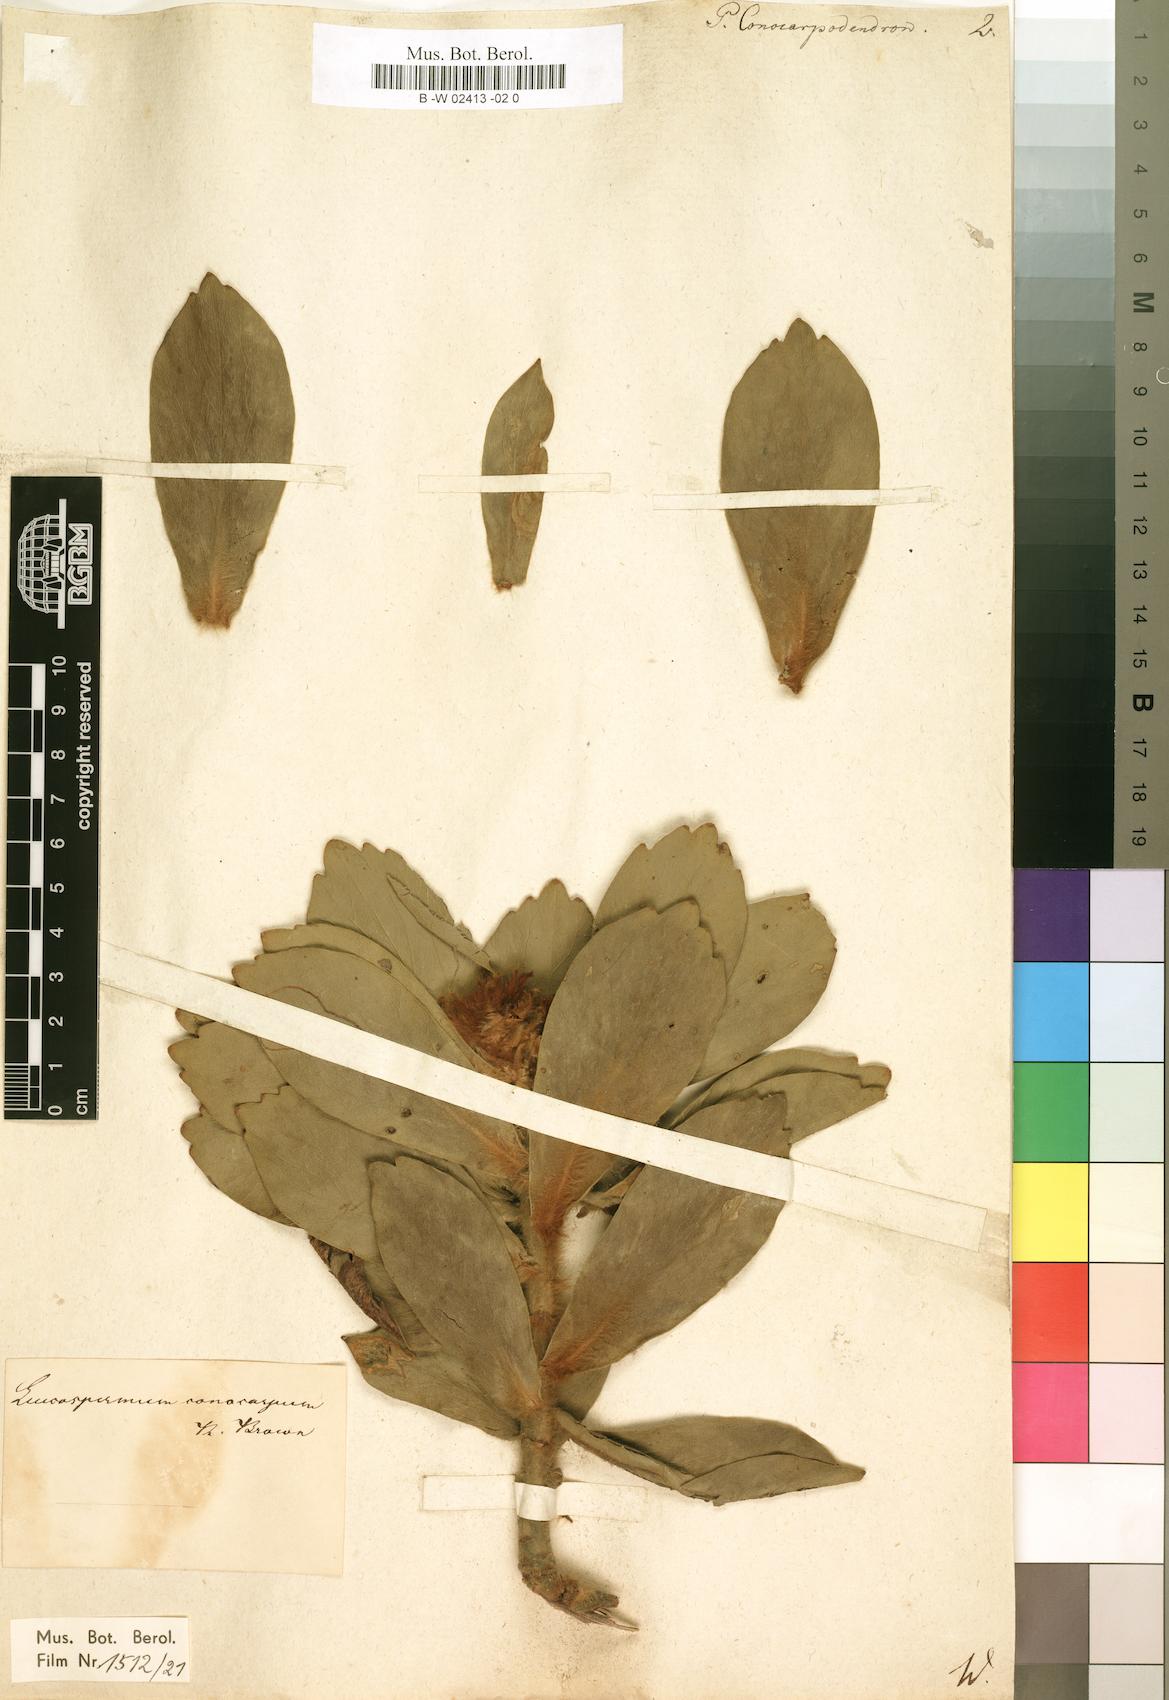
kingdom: Plantae
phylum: Tracheophyta
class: Magnoliopsida
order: Proteales
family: Proteaceae
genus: Leucospermum
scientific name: Leucospermum conocarpodendron
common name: Tree pincushion
